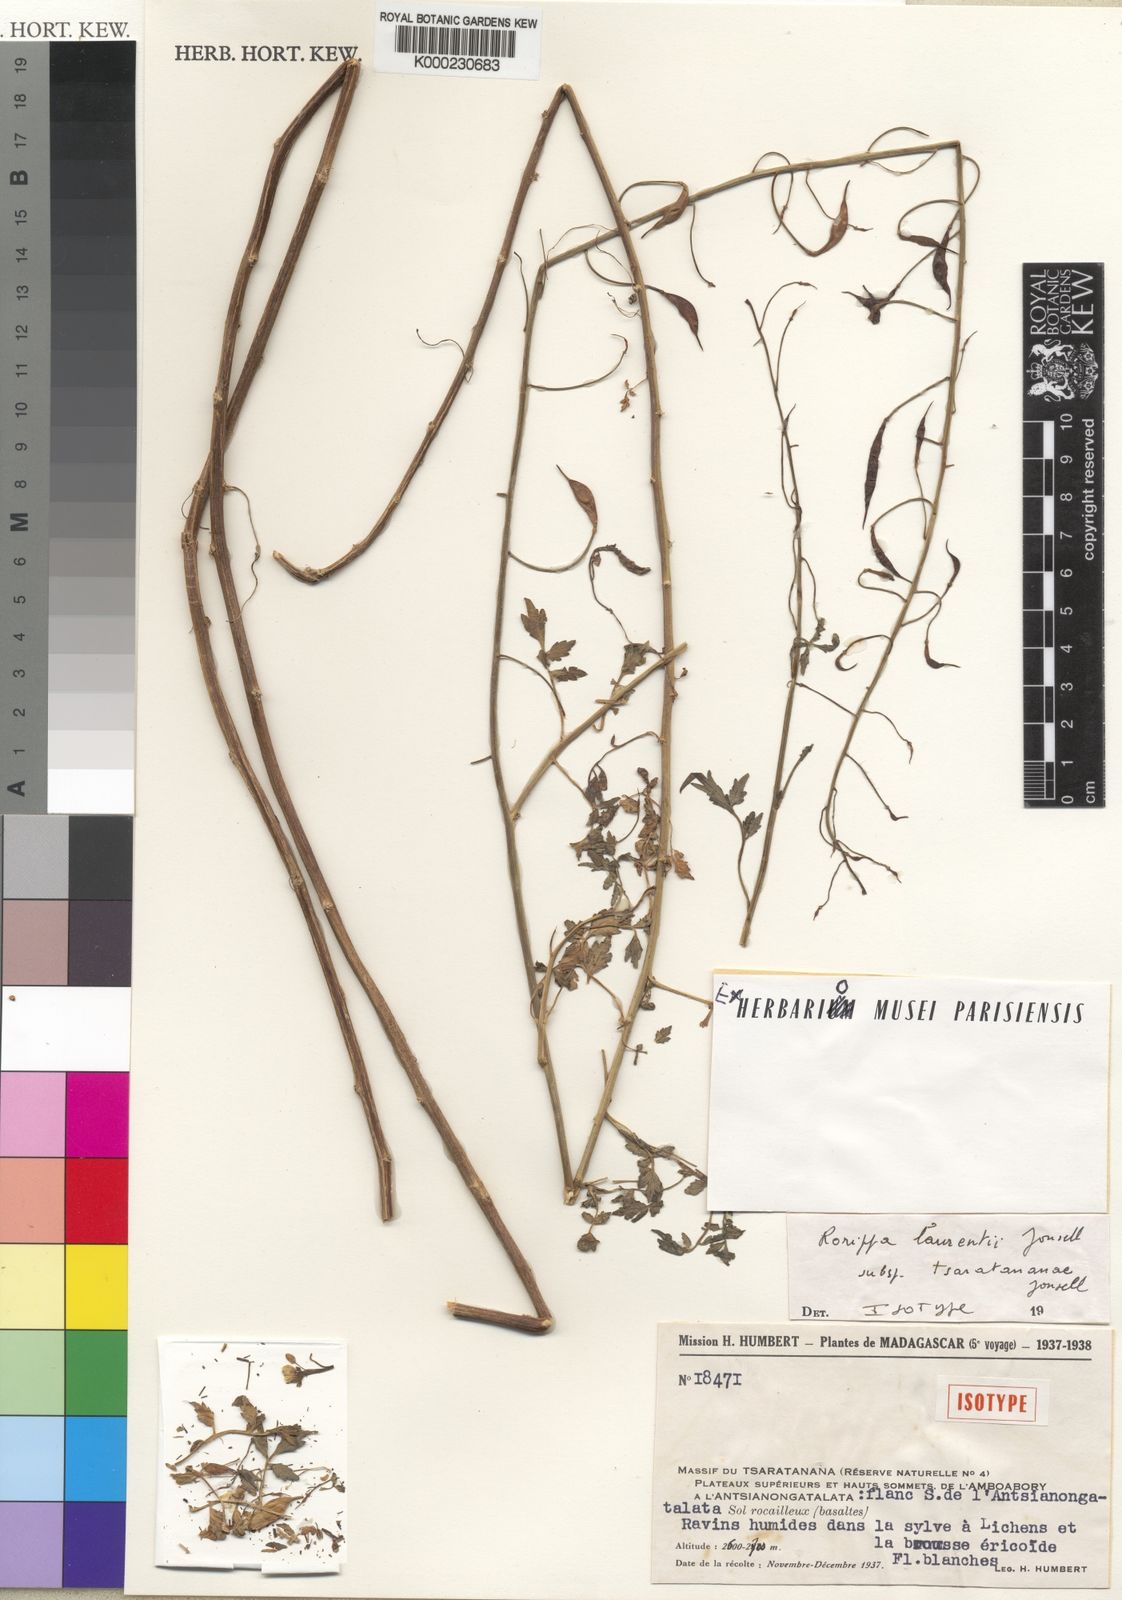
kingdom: Plantae
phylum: Tracheophyta
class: Magnoliopsida
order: Brassicales
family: Brassicaceae
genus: Bengt-jonsellia
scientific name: Bengt-jonsellia laurentii
